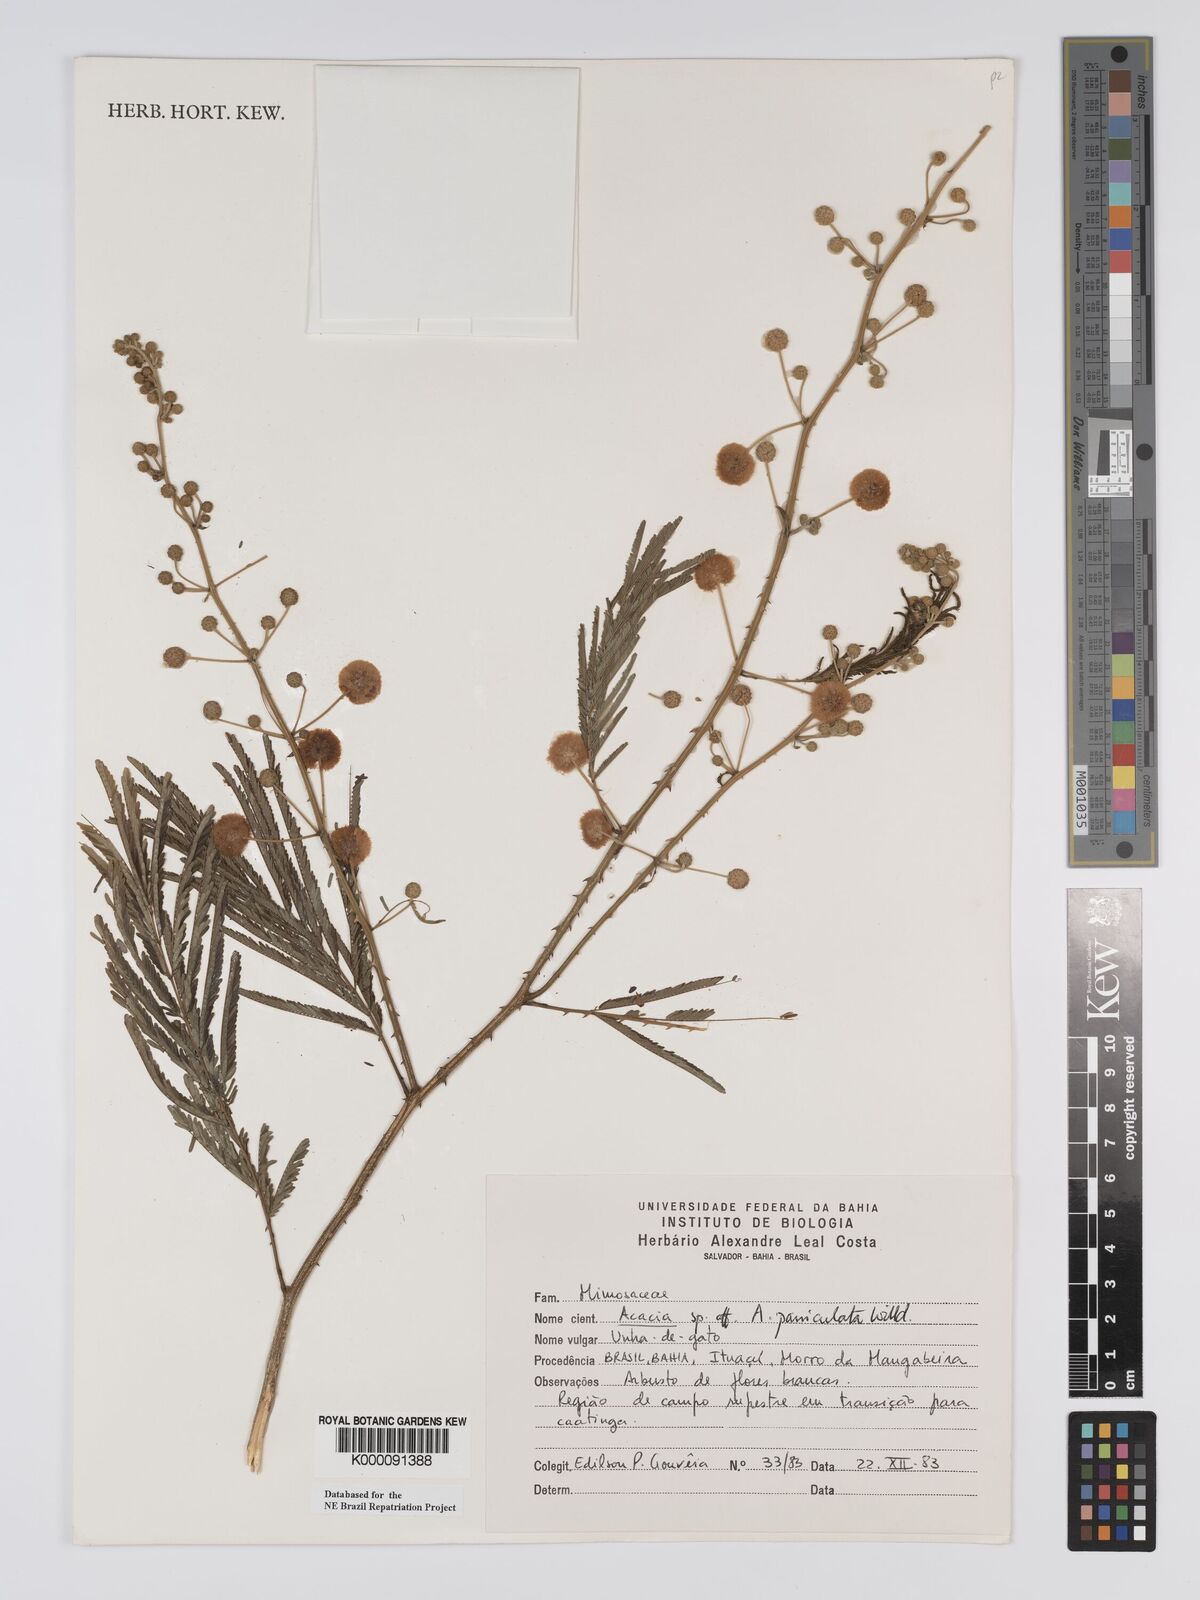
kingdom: Plantae
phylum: Tracheophyta
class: Magnoliopsida
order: Fabales
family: Fabaceae
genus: Senegalia
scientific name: Senegalia tenuifolia
